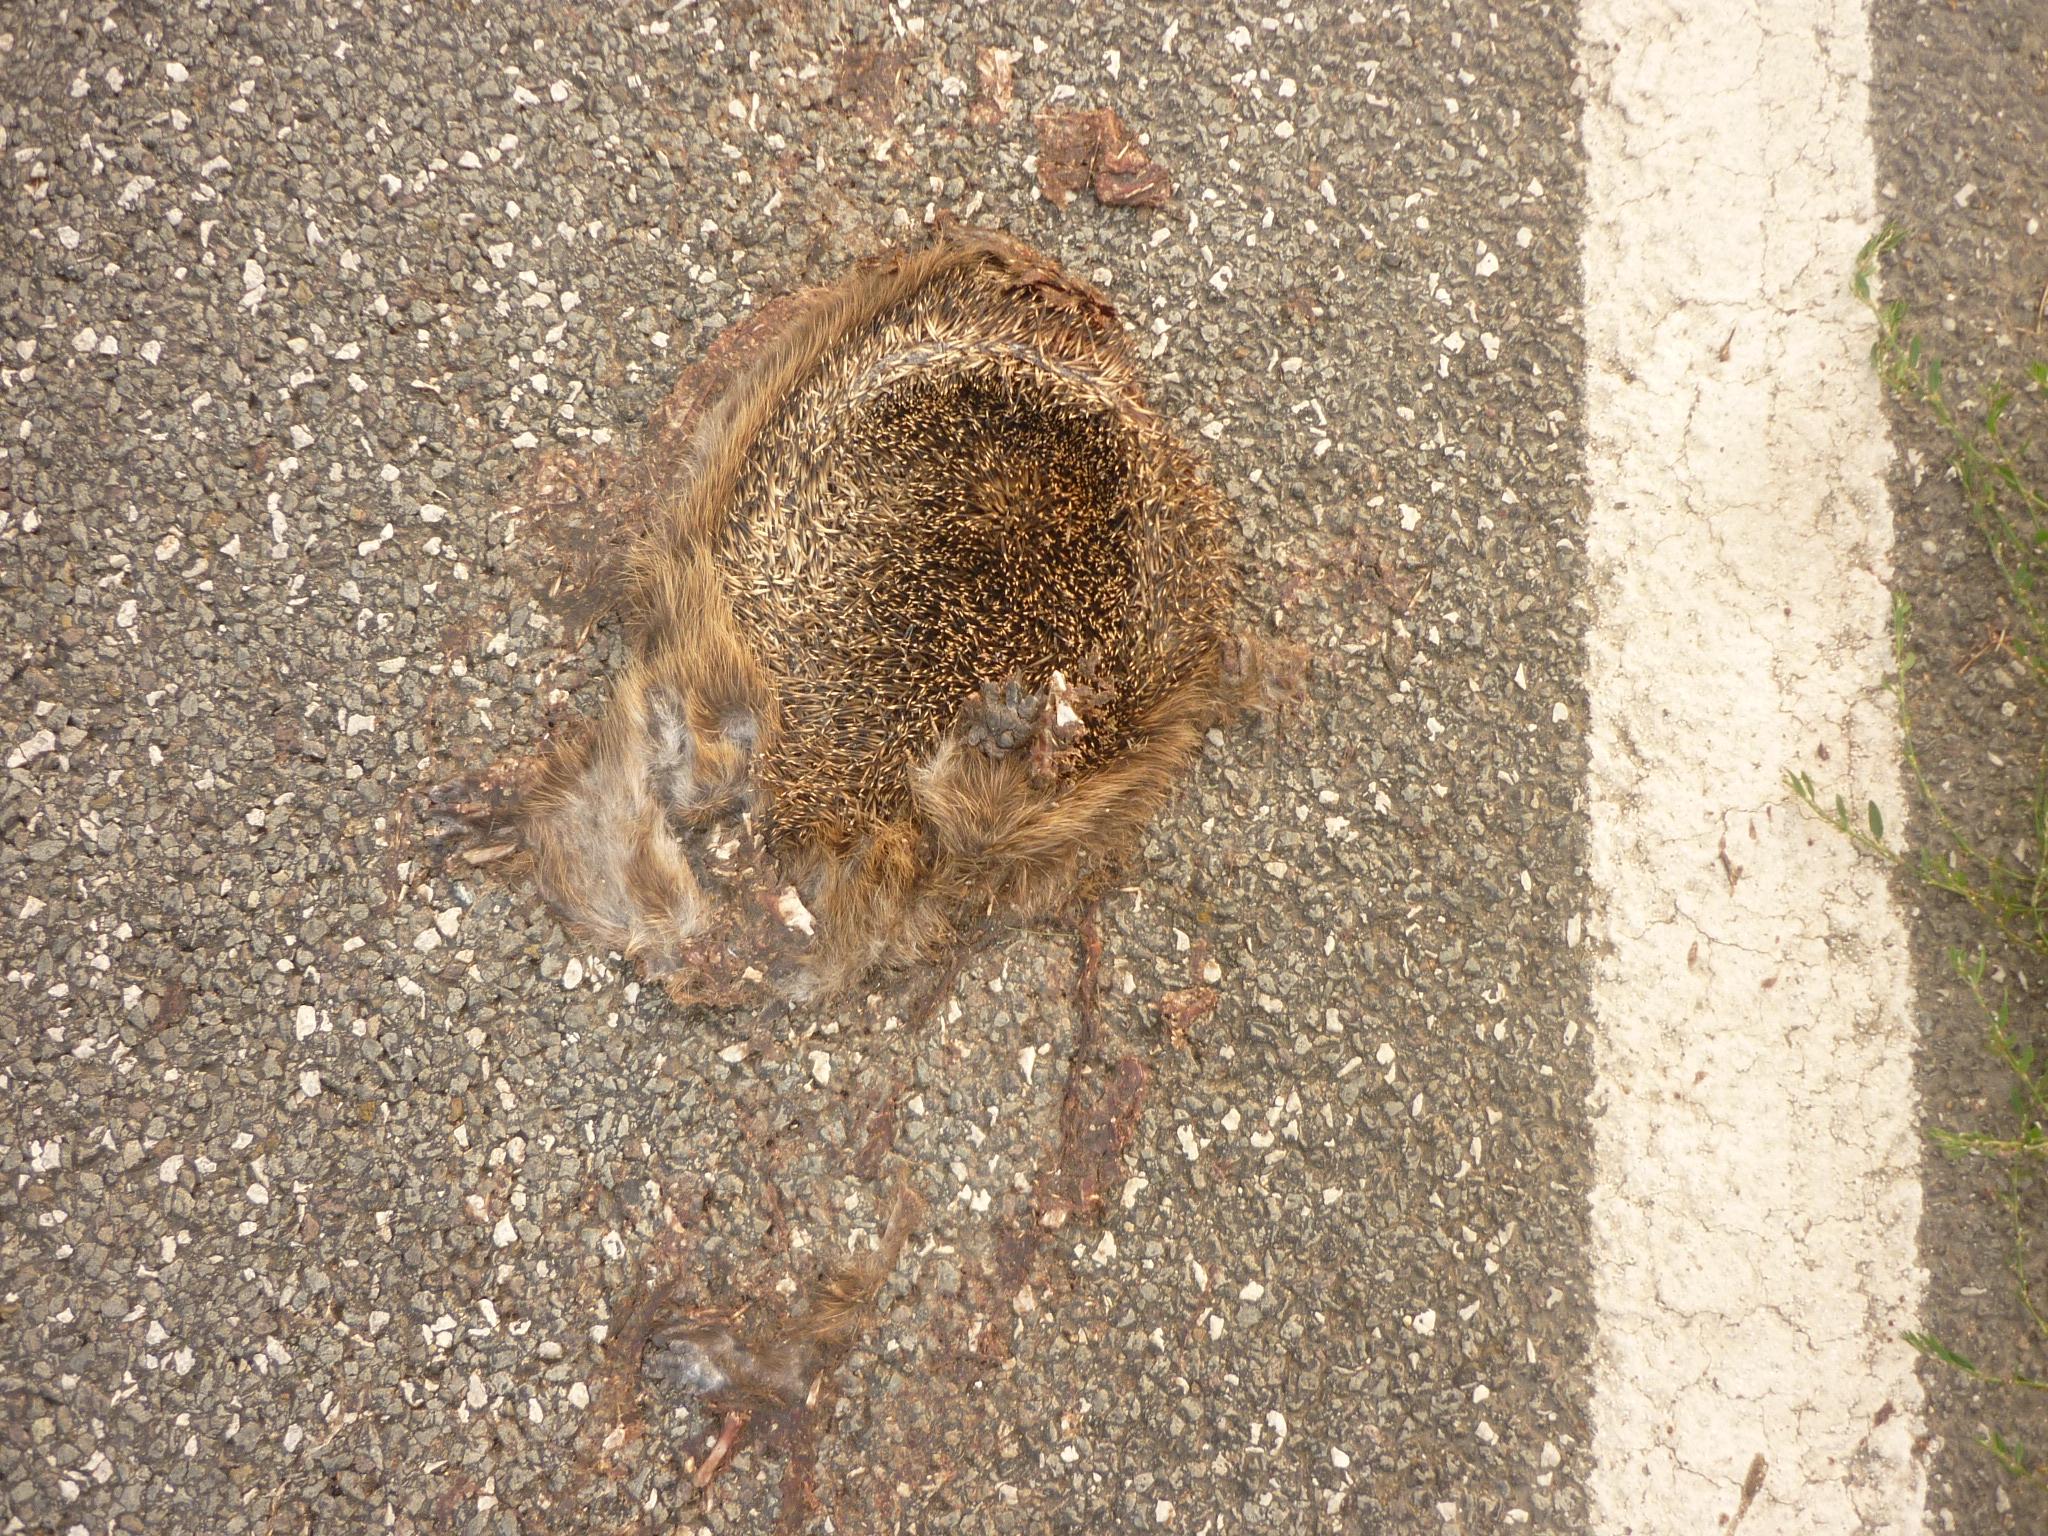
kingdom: Animalia
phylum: Chordata
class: Mammalia
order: Erinaceomorpha
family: Erinaceidae
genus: Erinaceus
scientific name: Erinaceus
